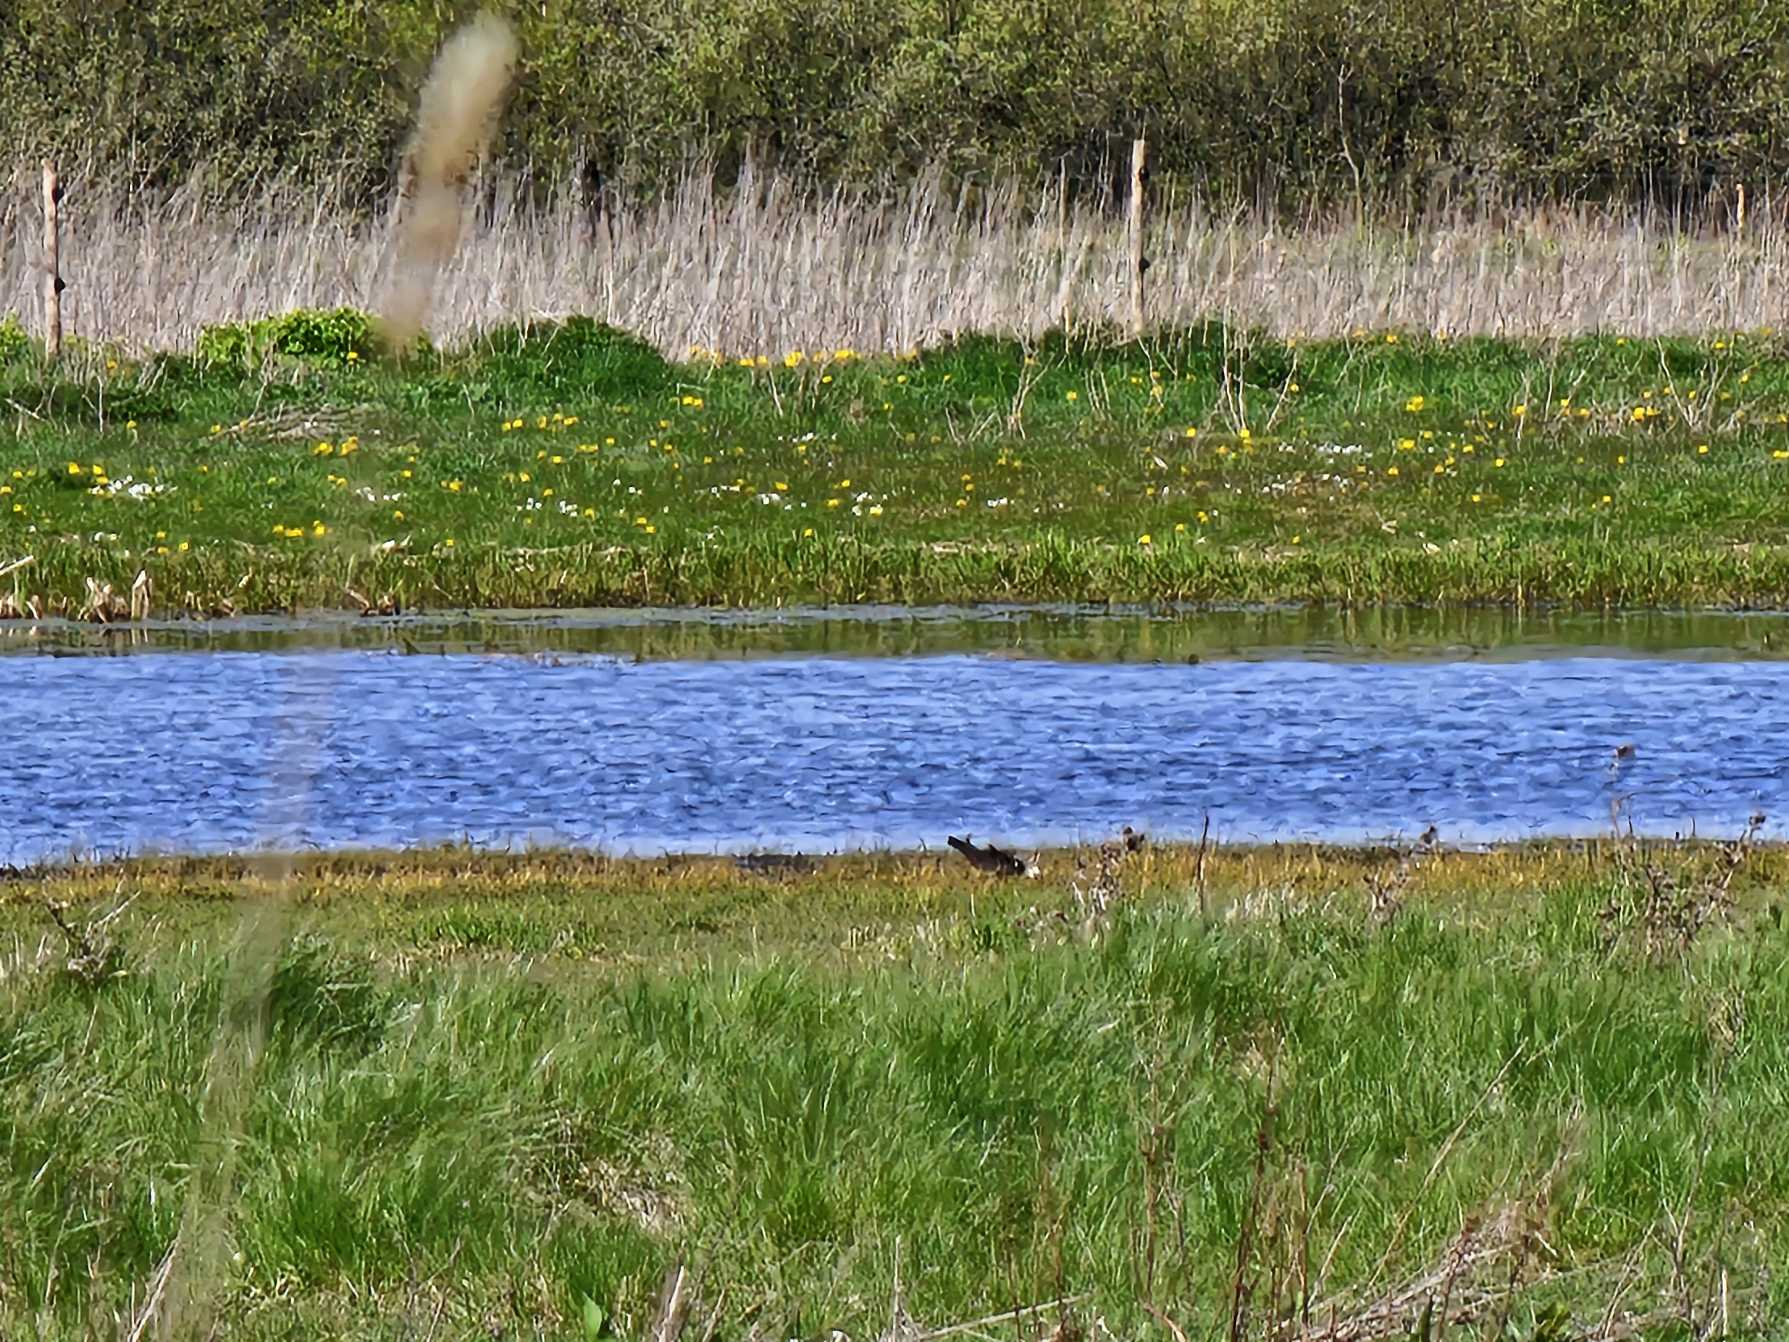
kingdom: Animalia
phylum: Chordata
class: Aves
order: Charadriiformes
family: Charadriidae
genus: Vanellus
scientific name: Vanellus vanellus
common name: Vibe
